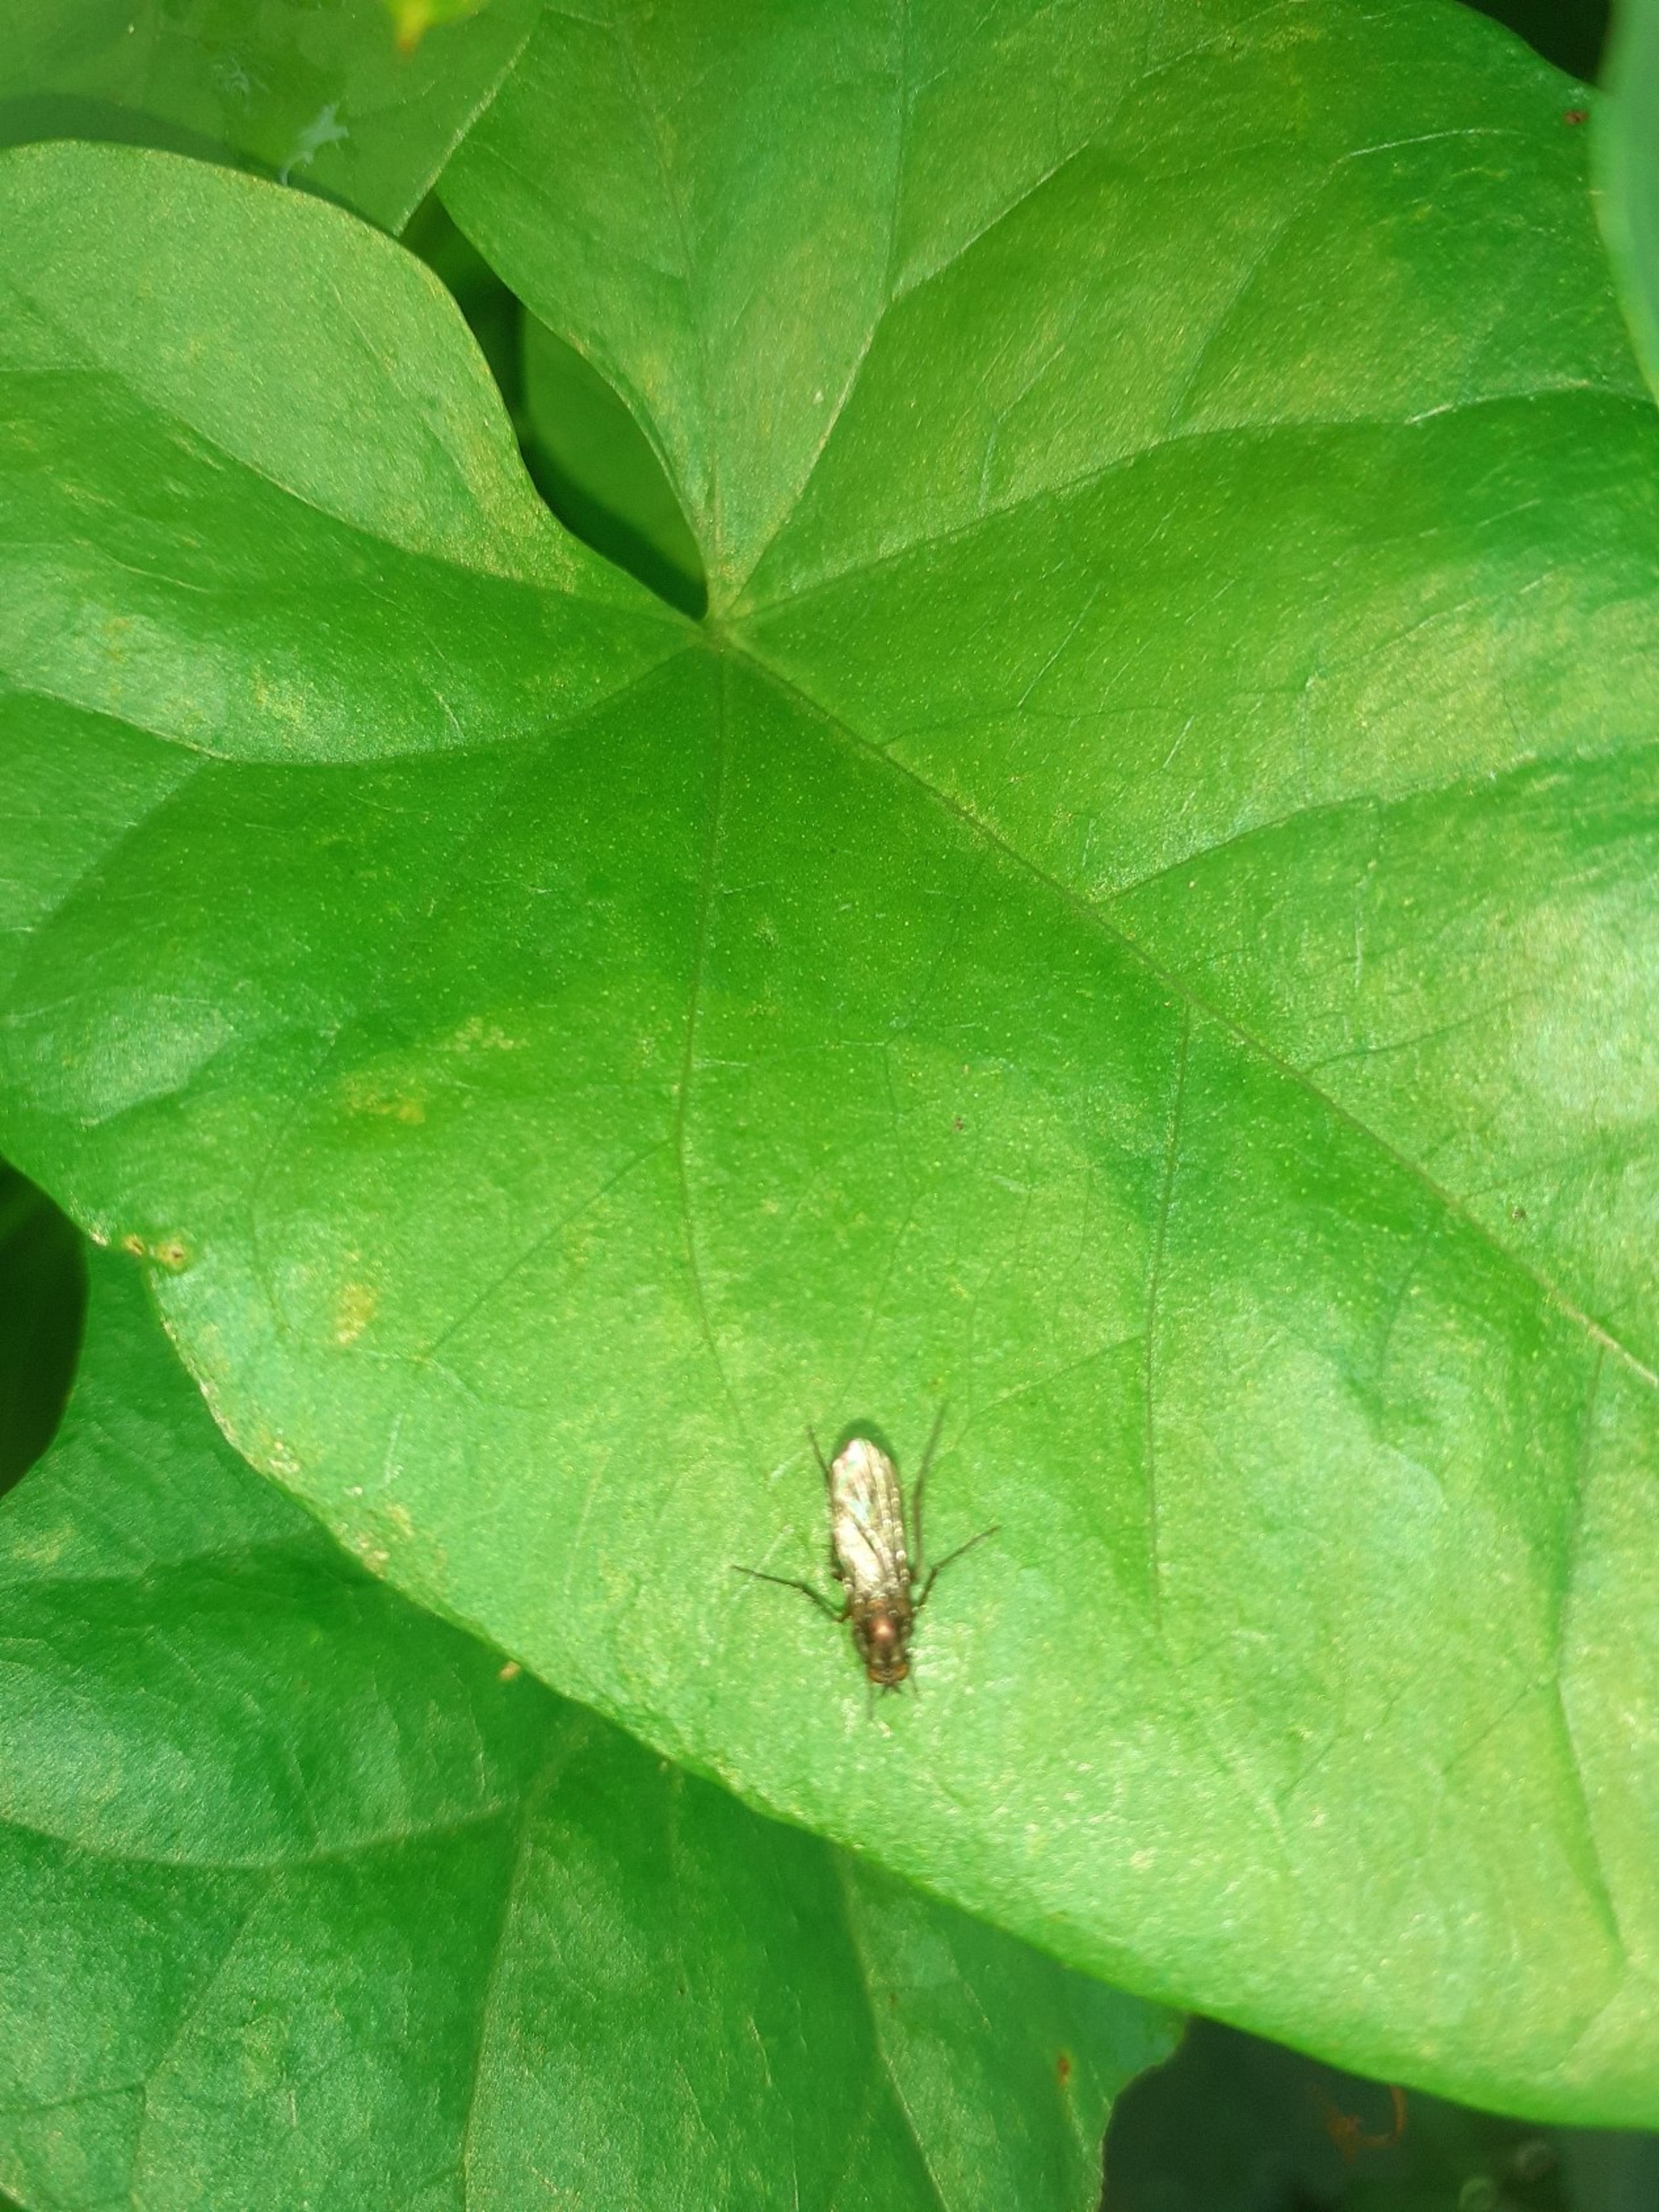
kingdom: Animalia
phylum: Arthropoda
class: Insecta
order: Diptera
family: Dolichopodidae
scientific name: Dolichopodidae
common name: Styltefluer
